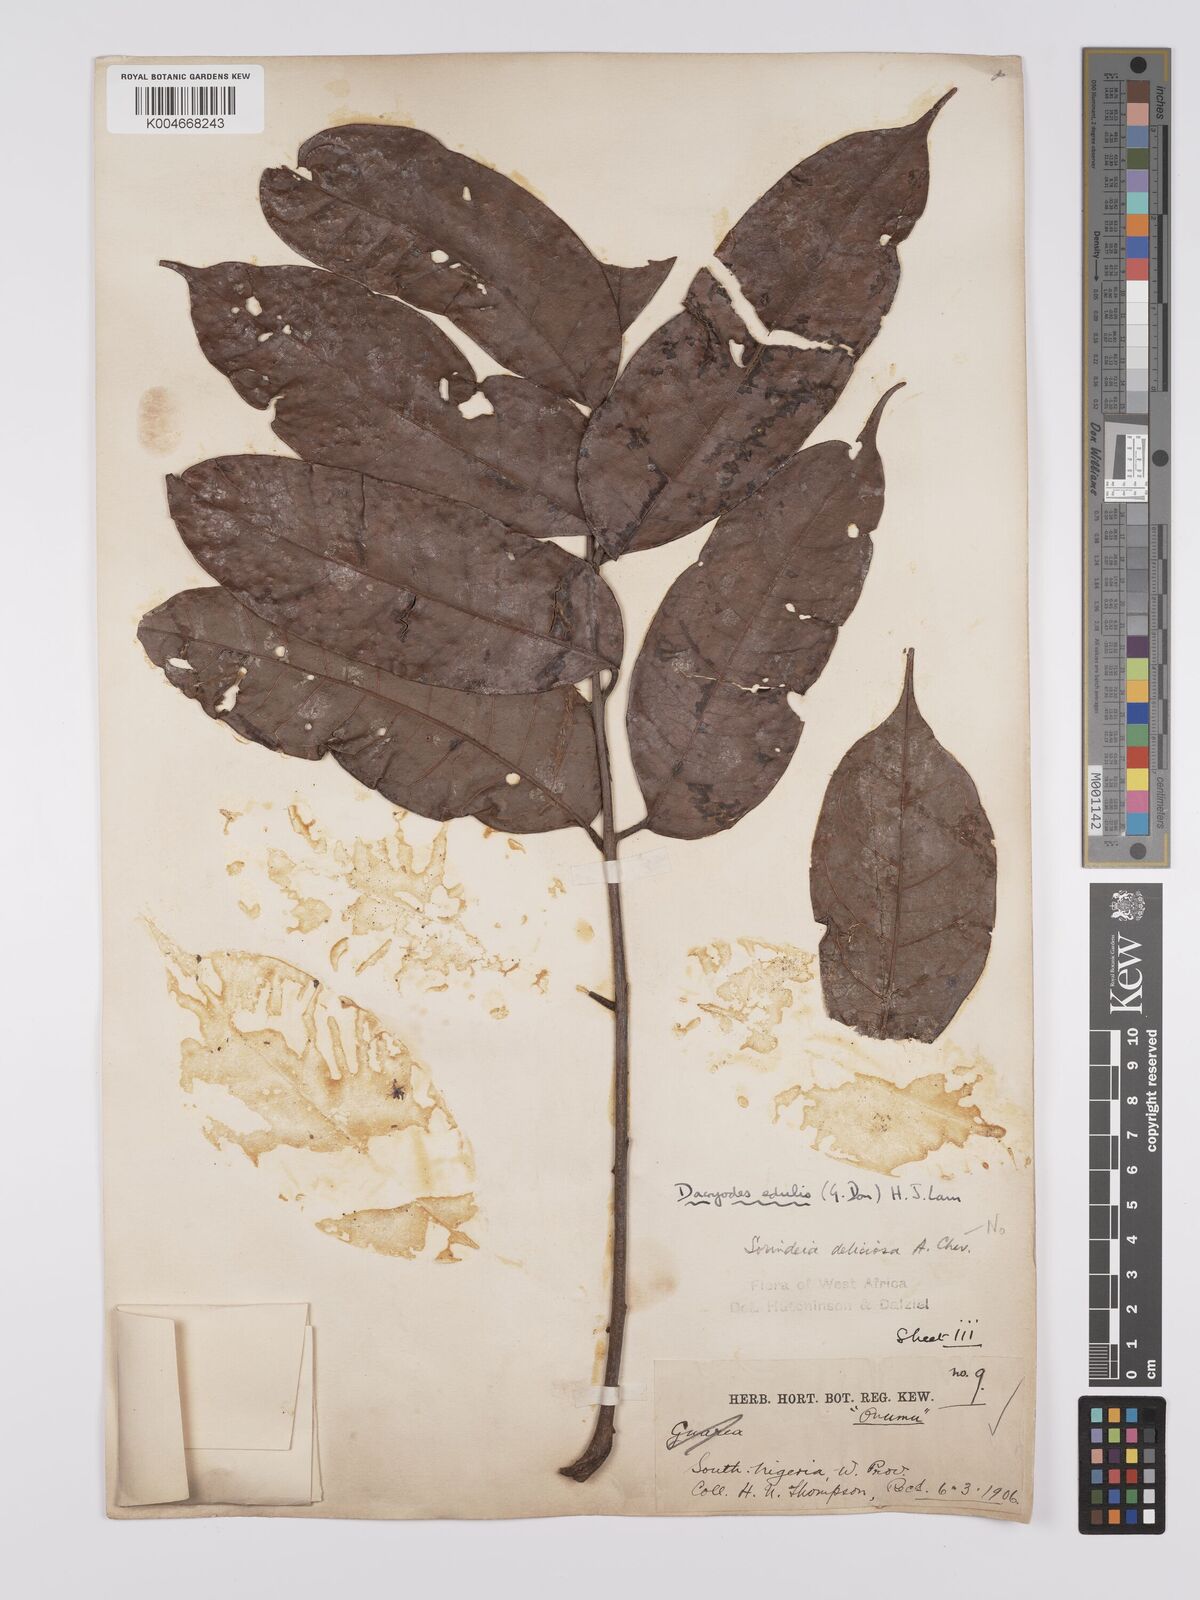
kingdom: Plantae
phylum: Tracheophyta
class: Magnoliopsida
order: Sapindales
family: Burseraceae
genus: Pachylobus
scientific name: Pachylobus edulis
